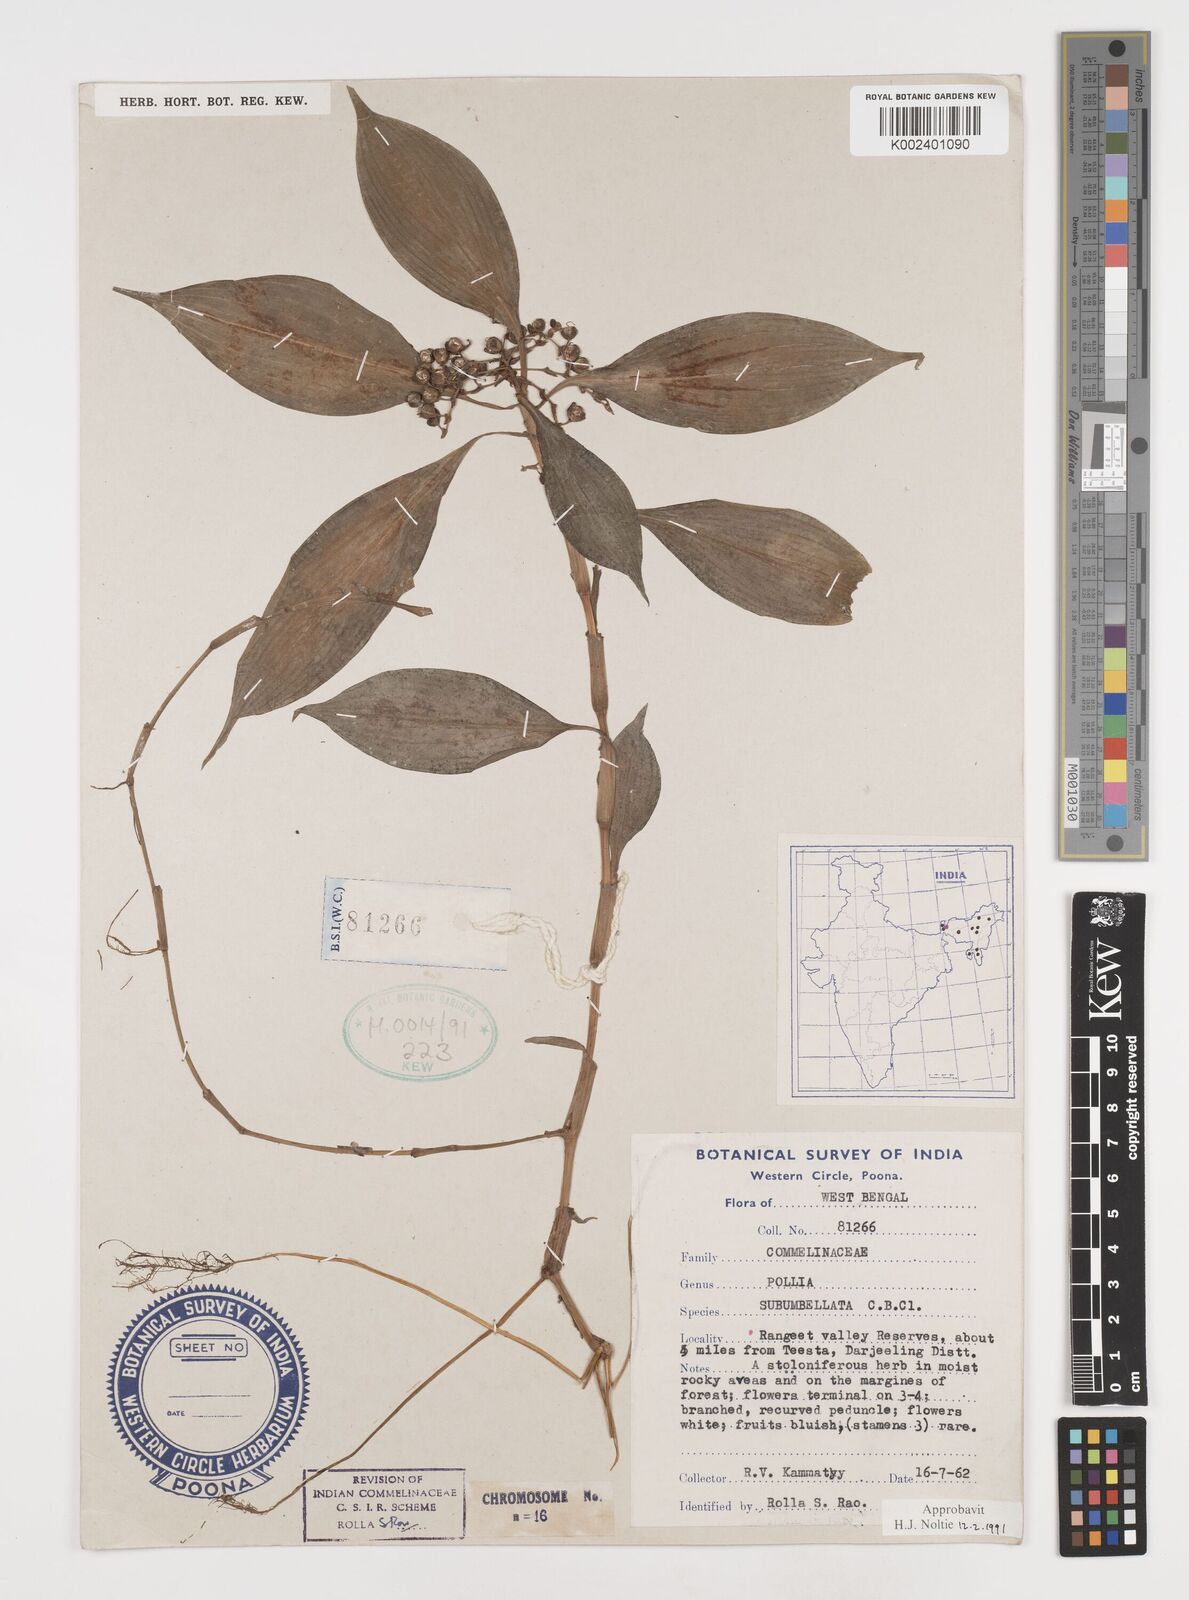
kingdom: Plantae
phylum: Tracheophyta
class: Liliopsida
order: Commelinales
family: Commelinaceae
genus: Pollia
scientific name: Pollia subumbellata
